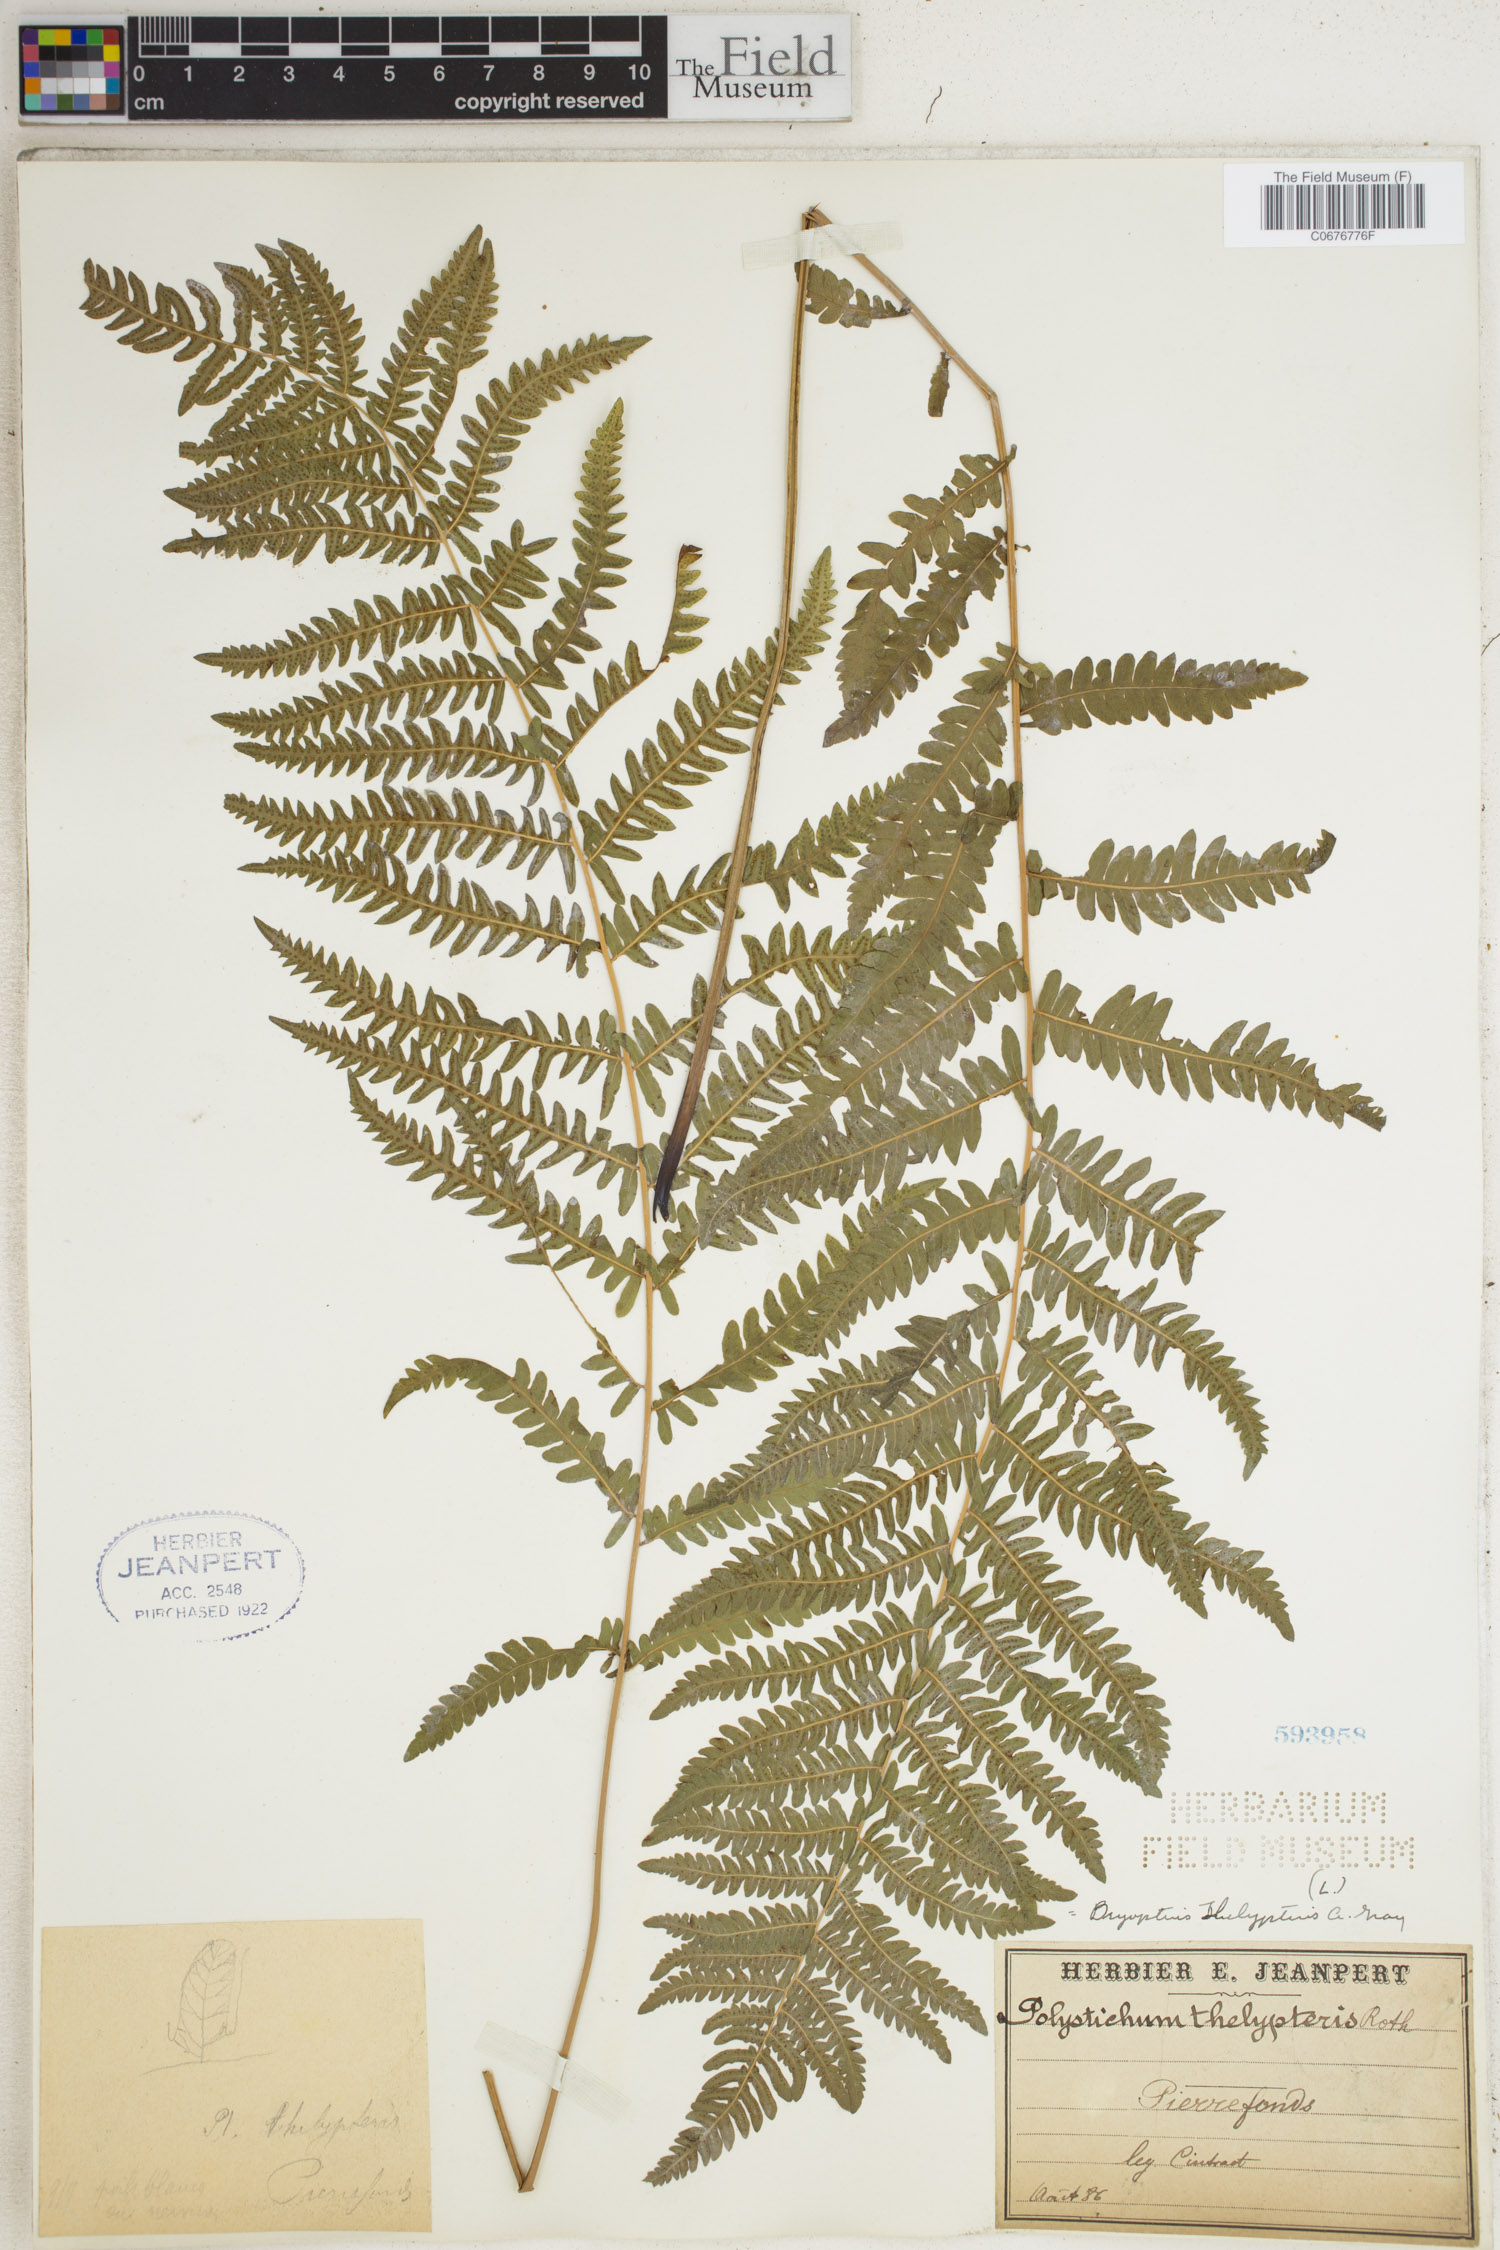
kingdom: Plantae
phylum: Tracheophyta
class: Polypodiopsida
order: Polypodiales
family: Thelypteridaceae
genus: Thelypteris
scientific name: Thelypteris palustris
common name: Marsh fern
